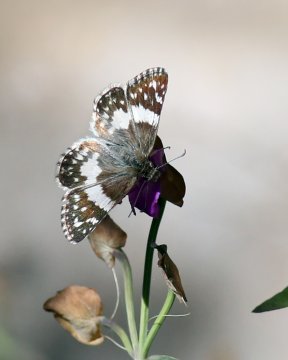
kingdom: Animalia
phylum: Arthropoda
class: Insecta
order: Lepidoptera
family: Hesperiidae
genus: Heliopyrgus
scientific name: Heliopyrgus domicella
